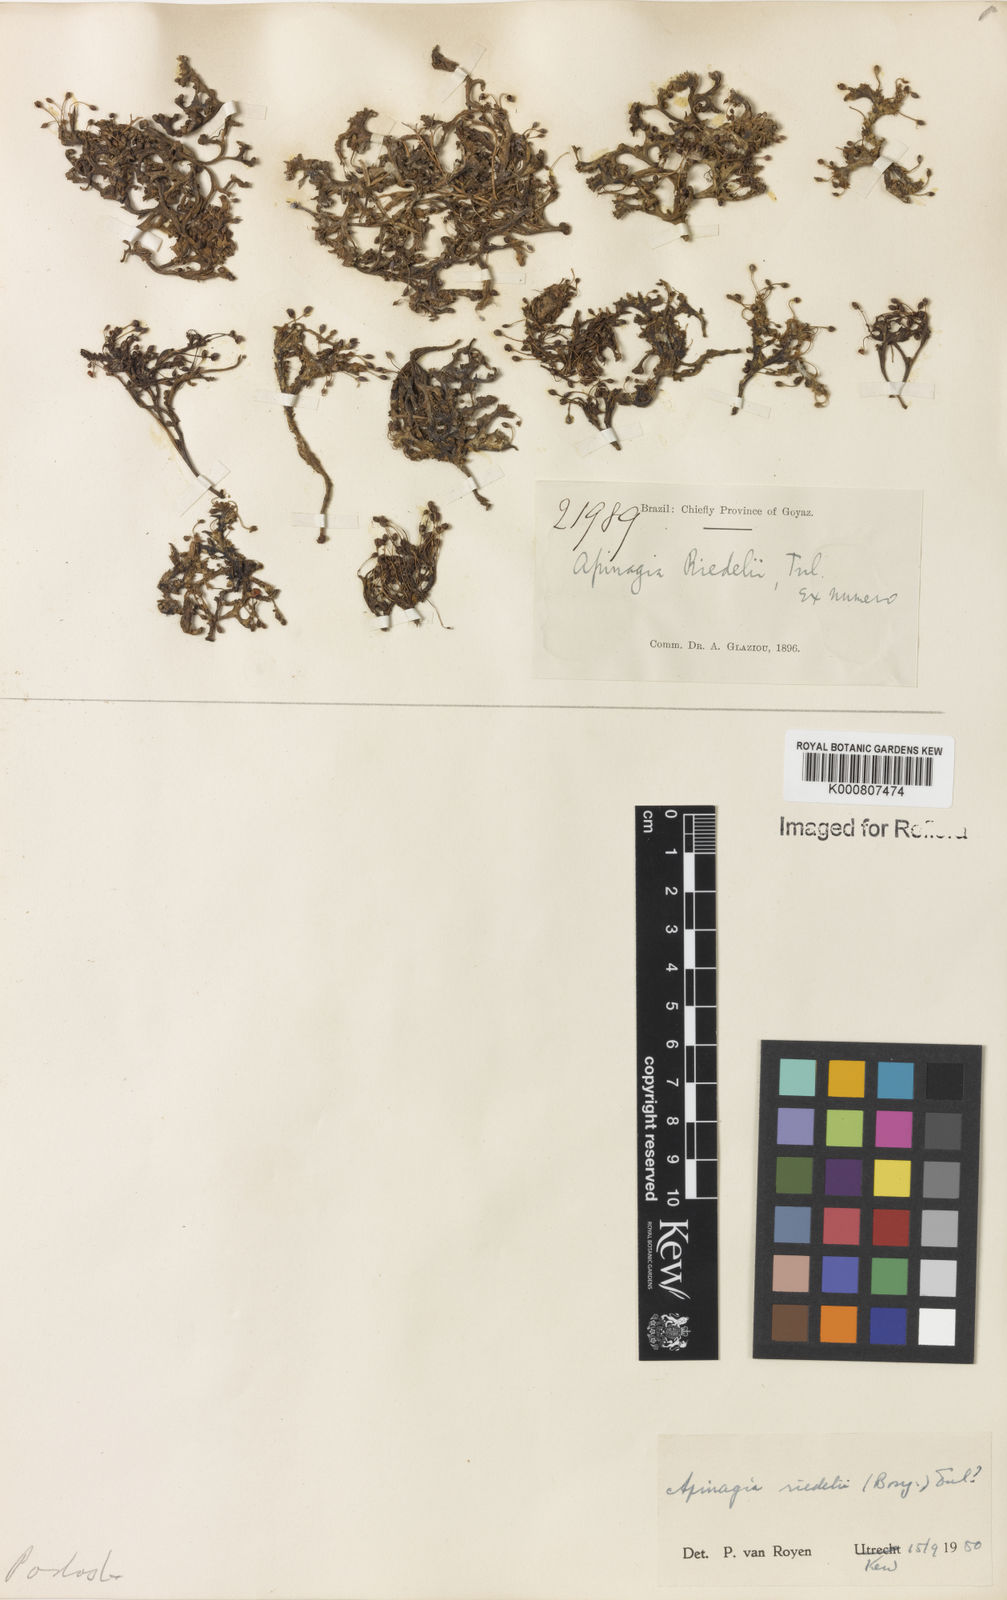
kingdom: Plantae
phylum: Tracheophyta
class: Magnoliopsida
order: Malpighiales
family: Podostemaceae
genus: Apinagia
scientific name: Apinagia riedelii
